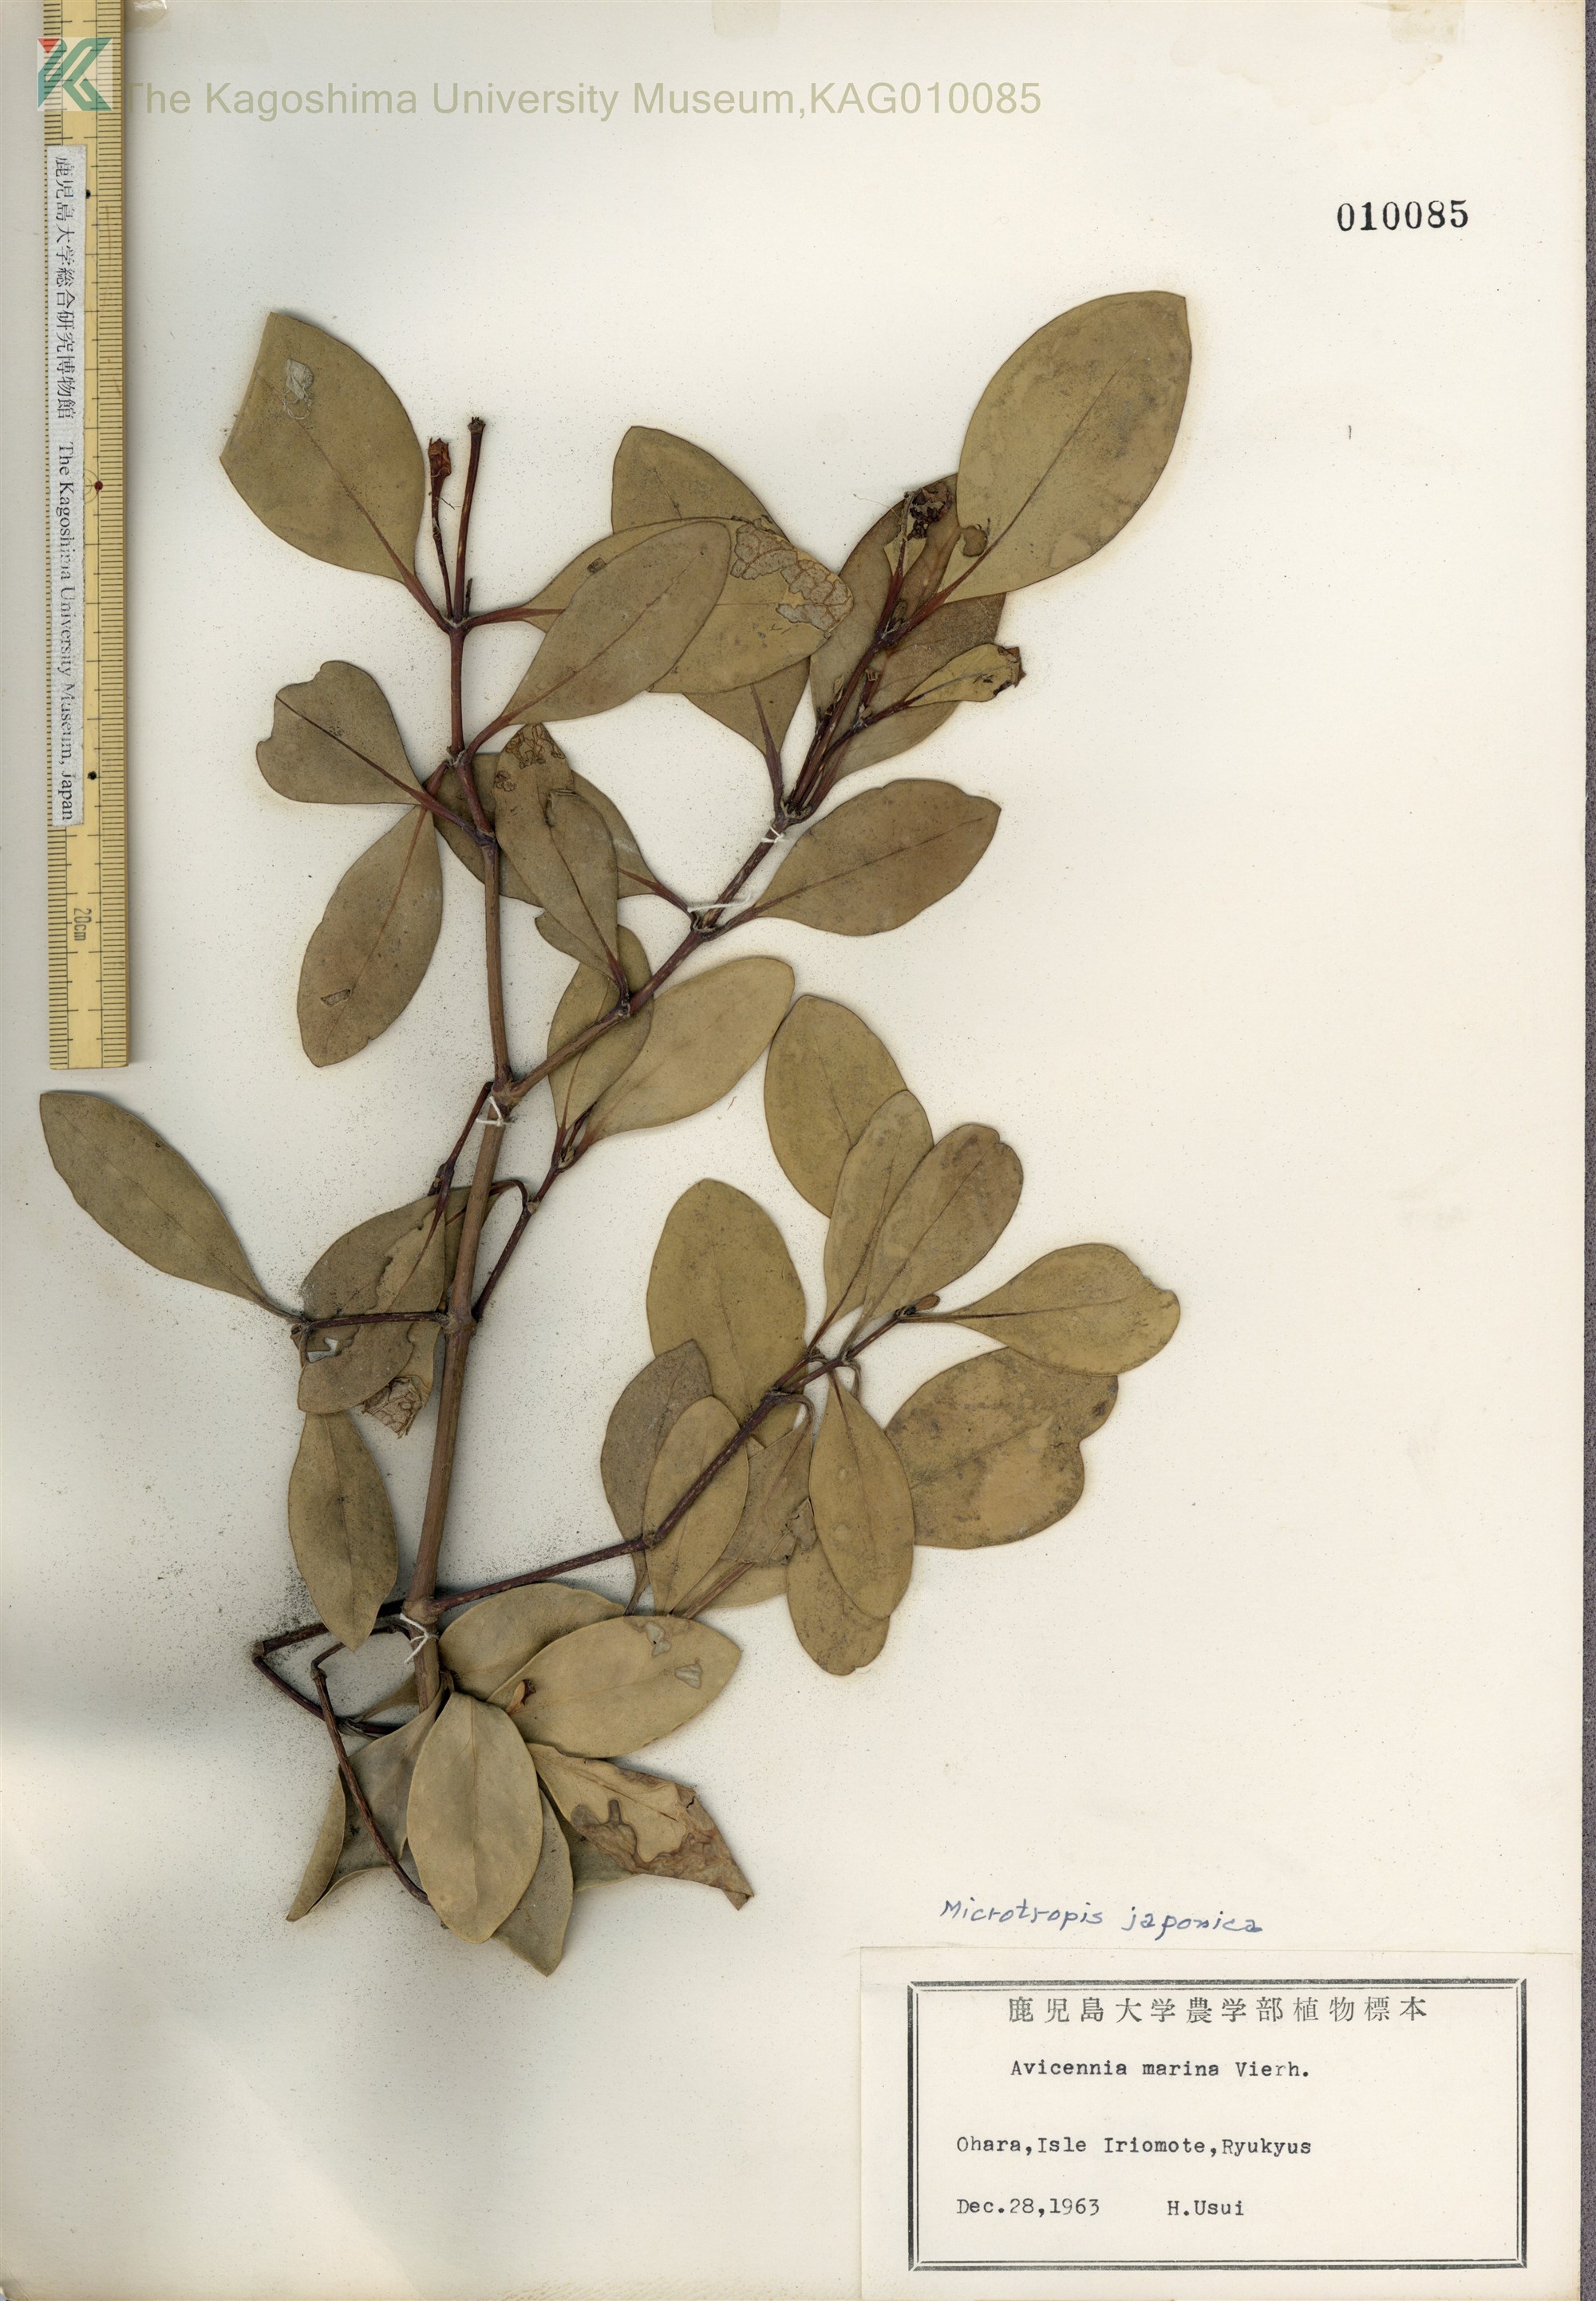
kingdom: Plantae
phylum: Tracheophyta
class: Magnoliopsida
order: Celastrales
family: Celastraceae
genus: Microtropis
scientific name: Microtropis japonica
